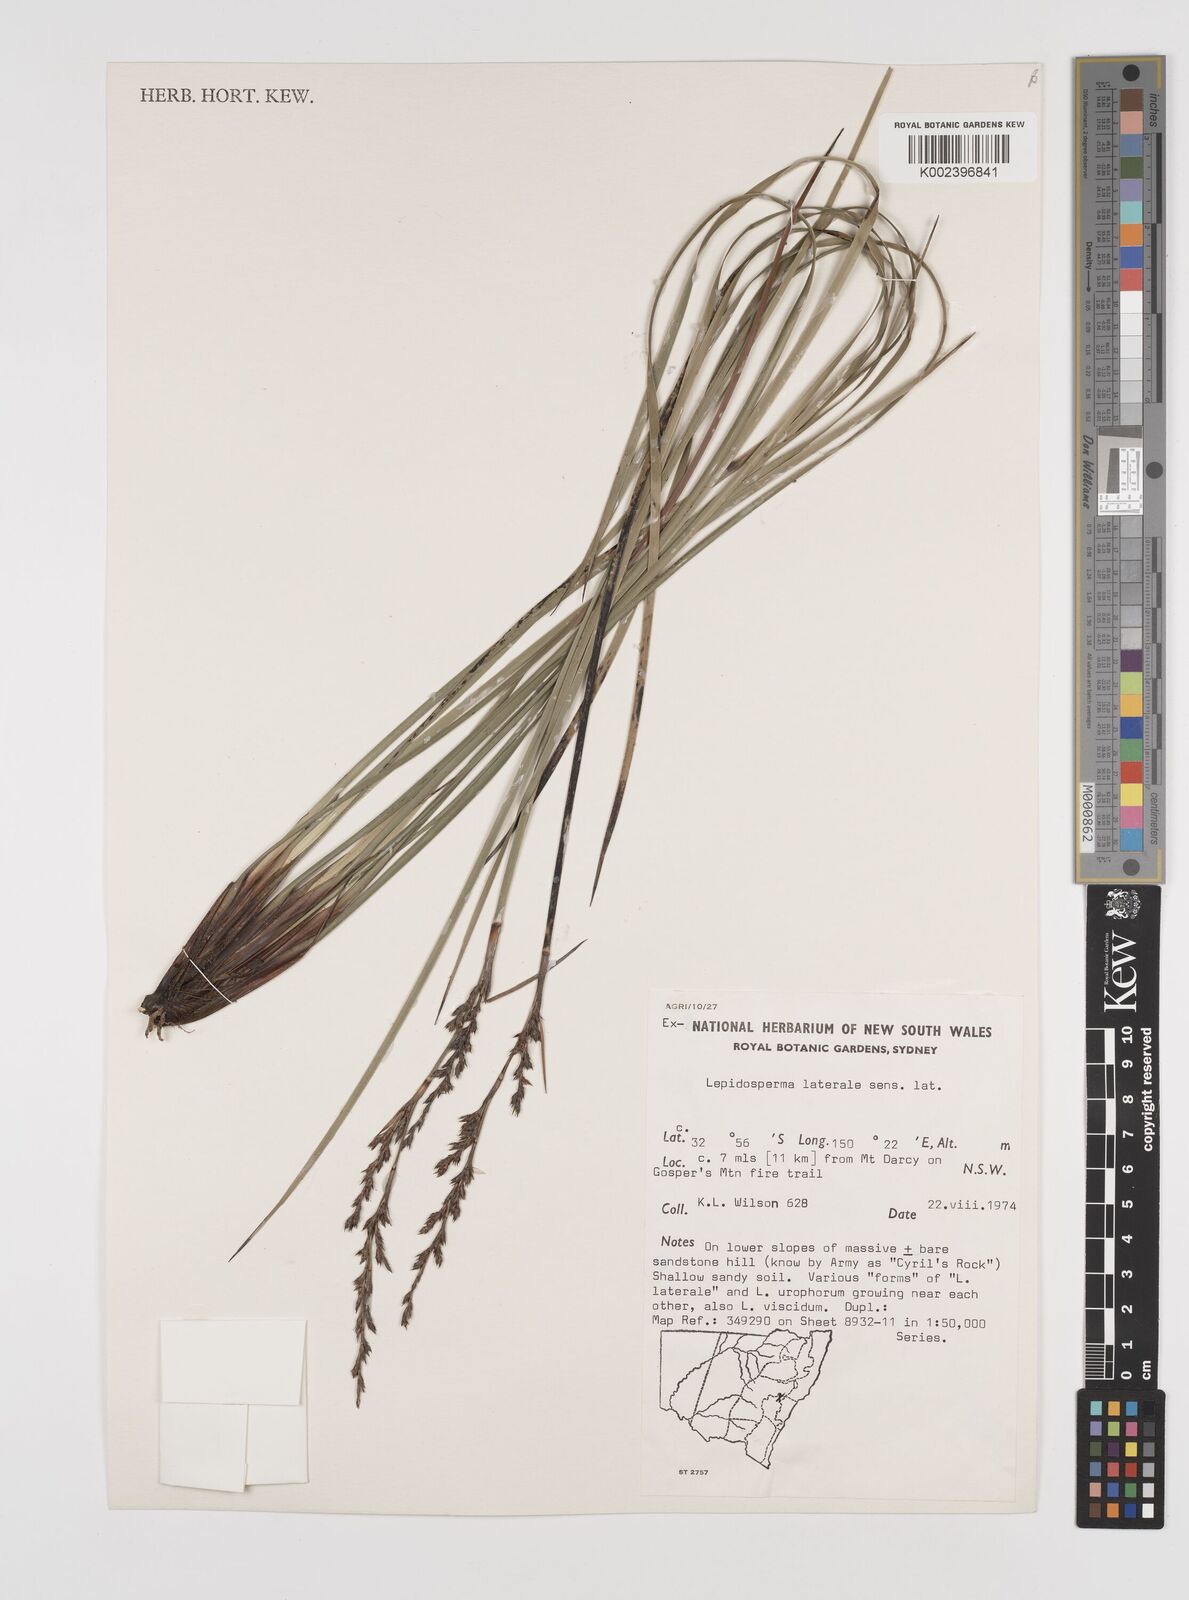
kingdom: Plantae
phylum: Tracheophyta
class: Liliopsida
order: Poales
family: Cyperaceae
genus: Lepidosperma
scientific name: Lepidosperma laterale
